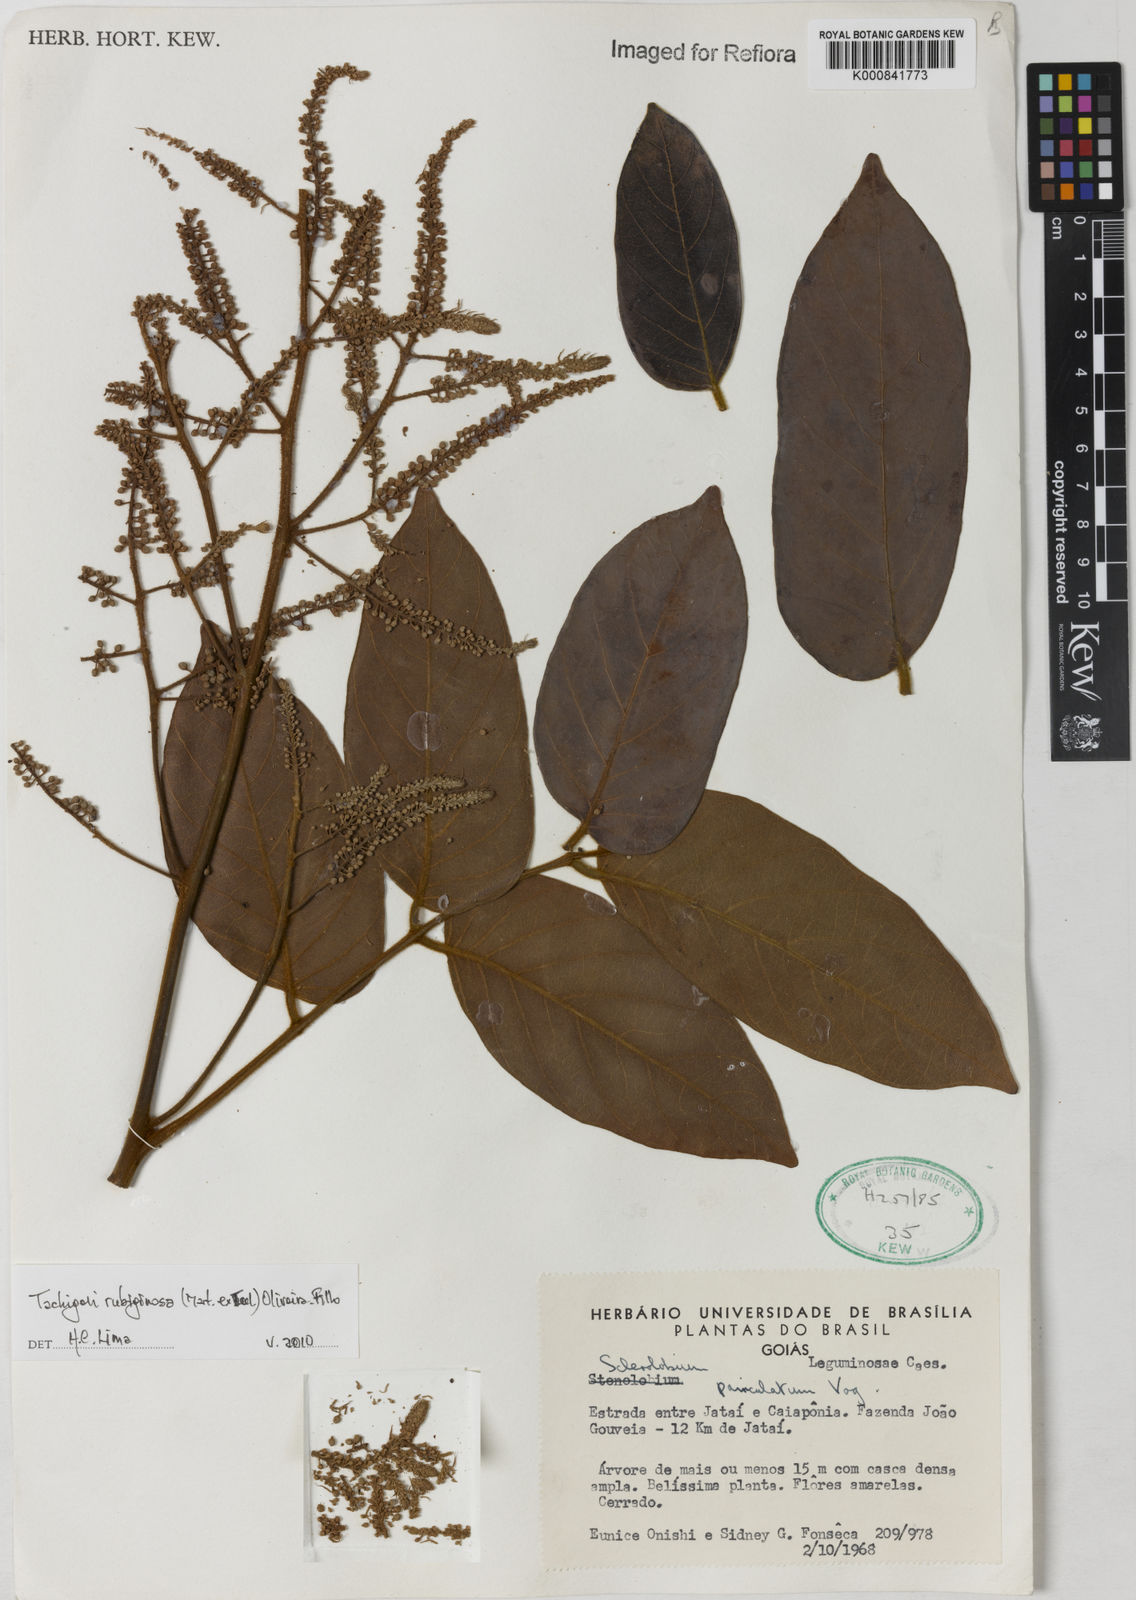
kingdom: Plantae
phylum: Tracheophyta
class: Magnoliopsida
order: Fabales
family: Fabaceae
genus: Tachigali
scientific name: Tachigali rubiginosa
